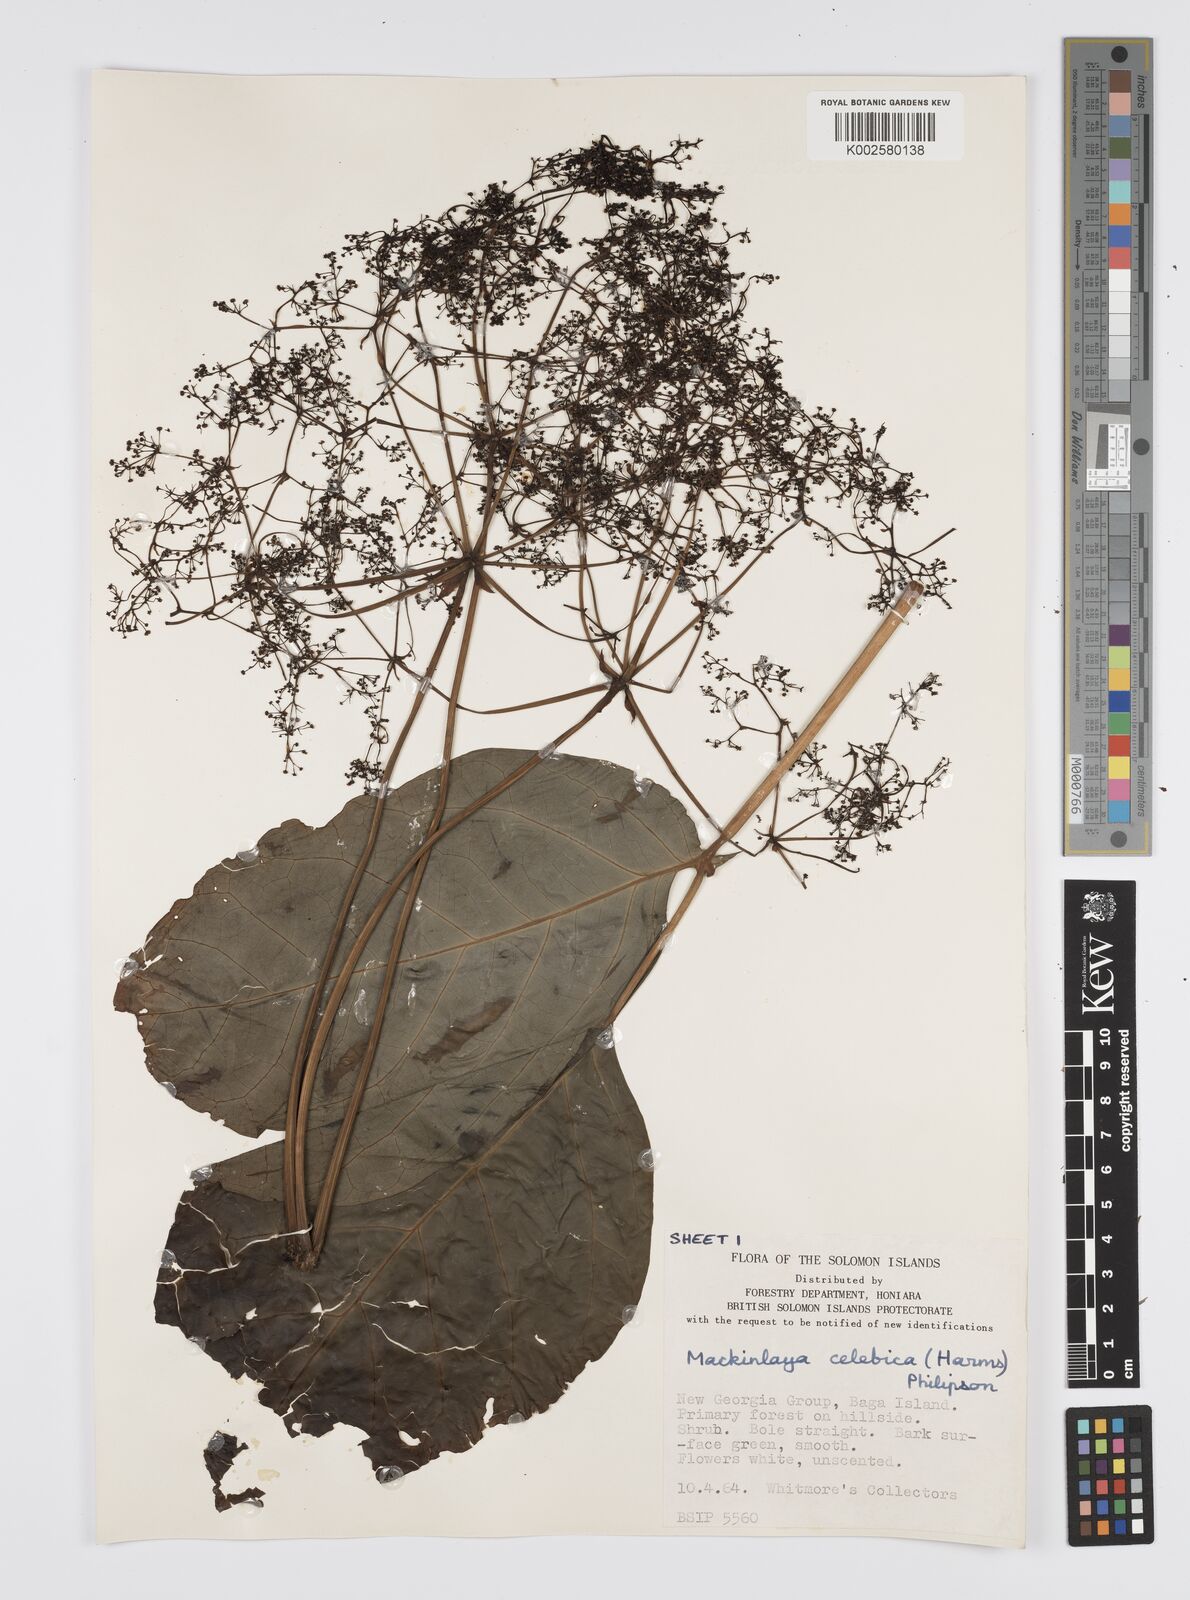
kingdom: Plantae
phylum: Tracheophyta
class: Magnoliopsida
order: Apiales
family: Apiaceae
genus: Mackinlaya
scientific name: Mackinlaya celebica
